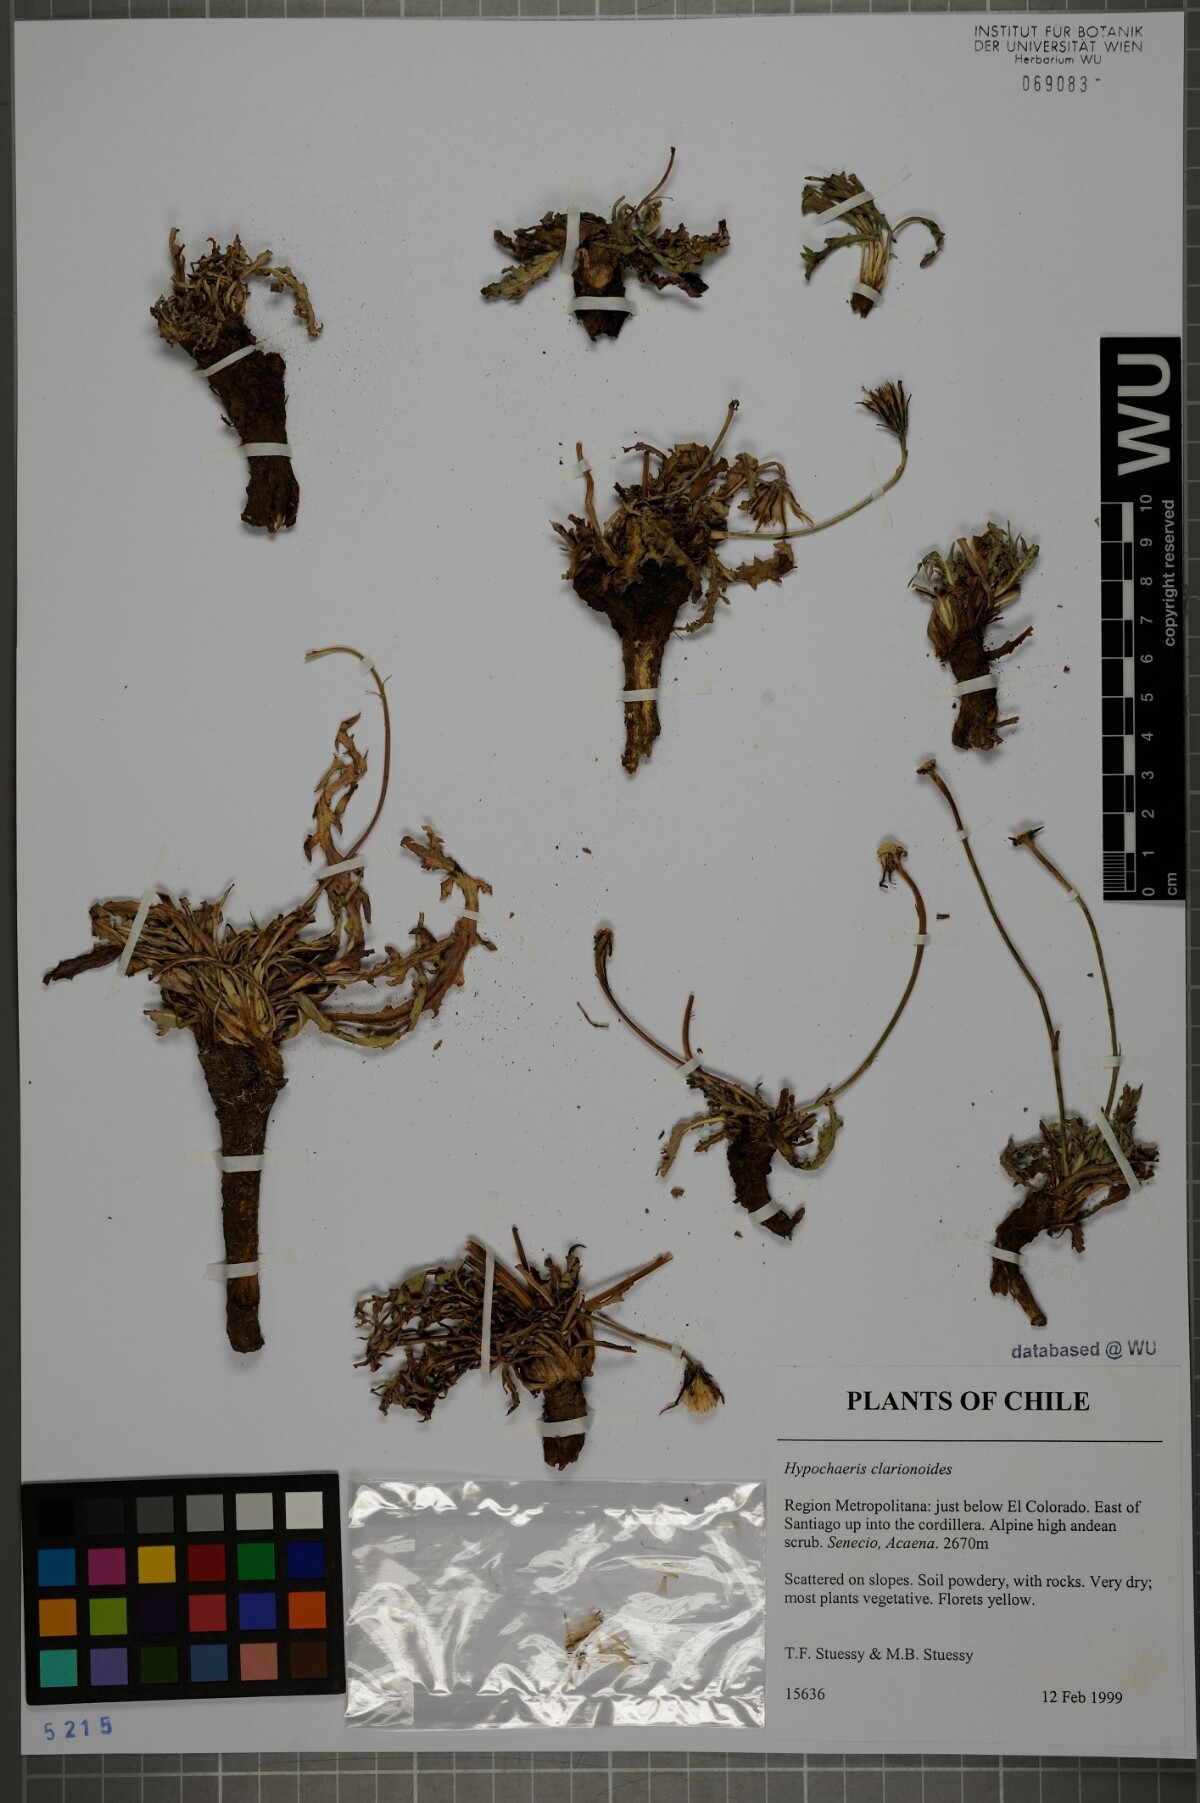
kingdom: Plantae
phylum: Tracheophyta
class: Magnoliopsida
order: Asterales
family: Asteraceae
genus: Hypochaeris
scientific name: Hypochaeris clarionoides
